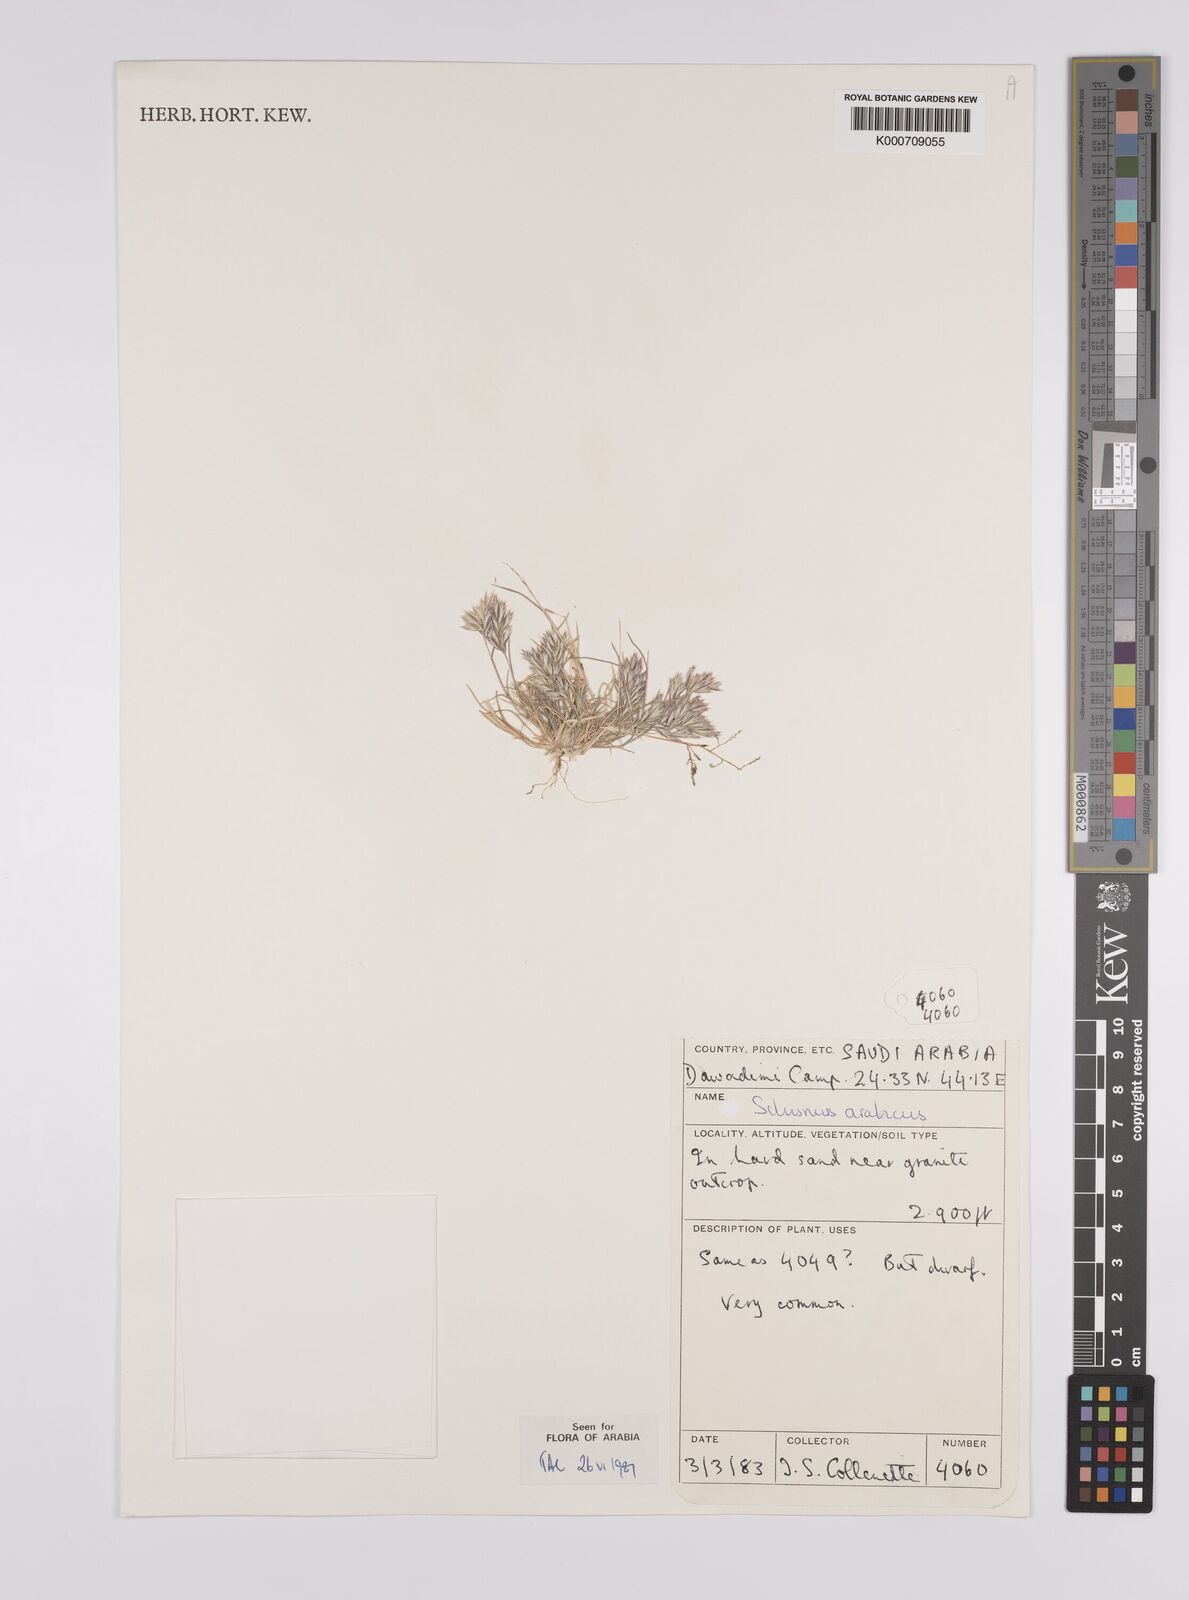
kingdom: Plantae
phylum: Tracheophyta
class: Liliopsida
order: Poales
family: Poaceae
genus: Schismus
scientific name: Schismus arabicus
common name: Arabian schismus
